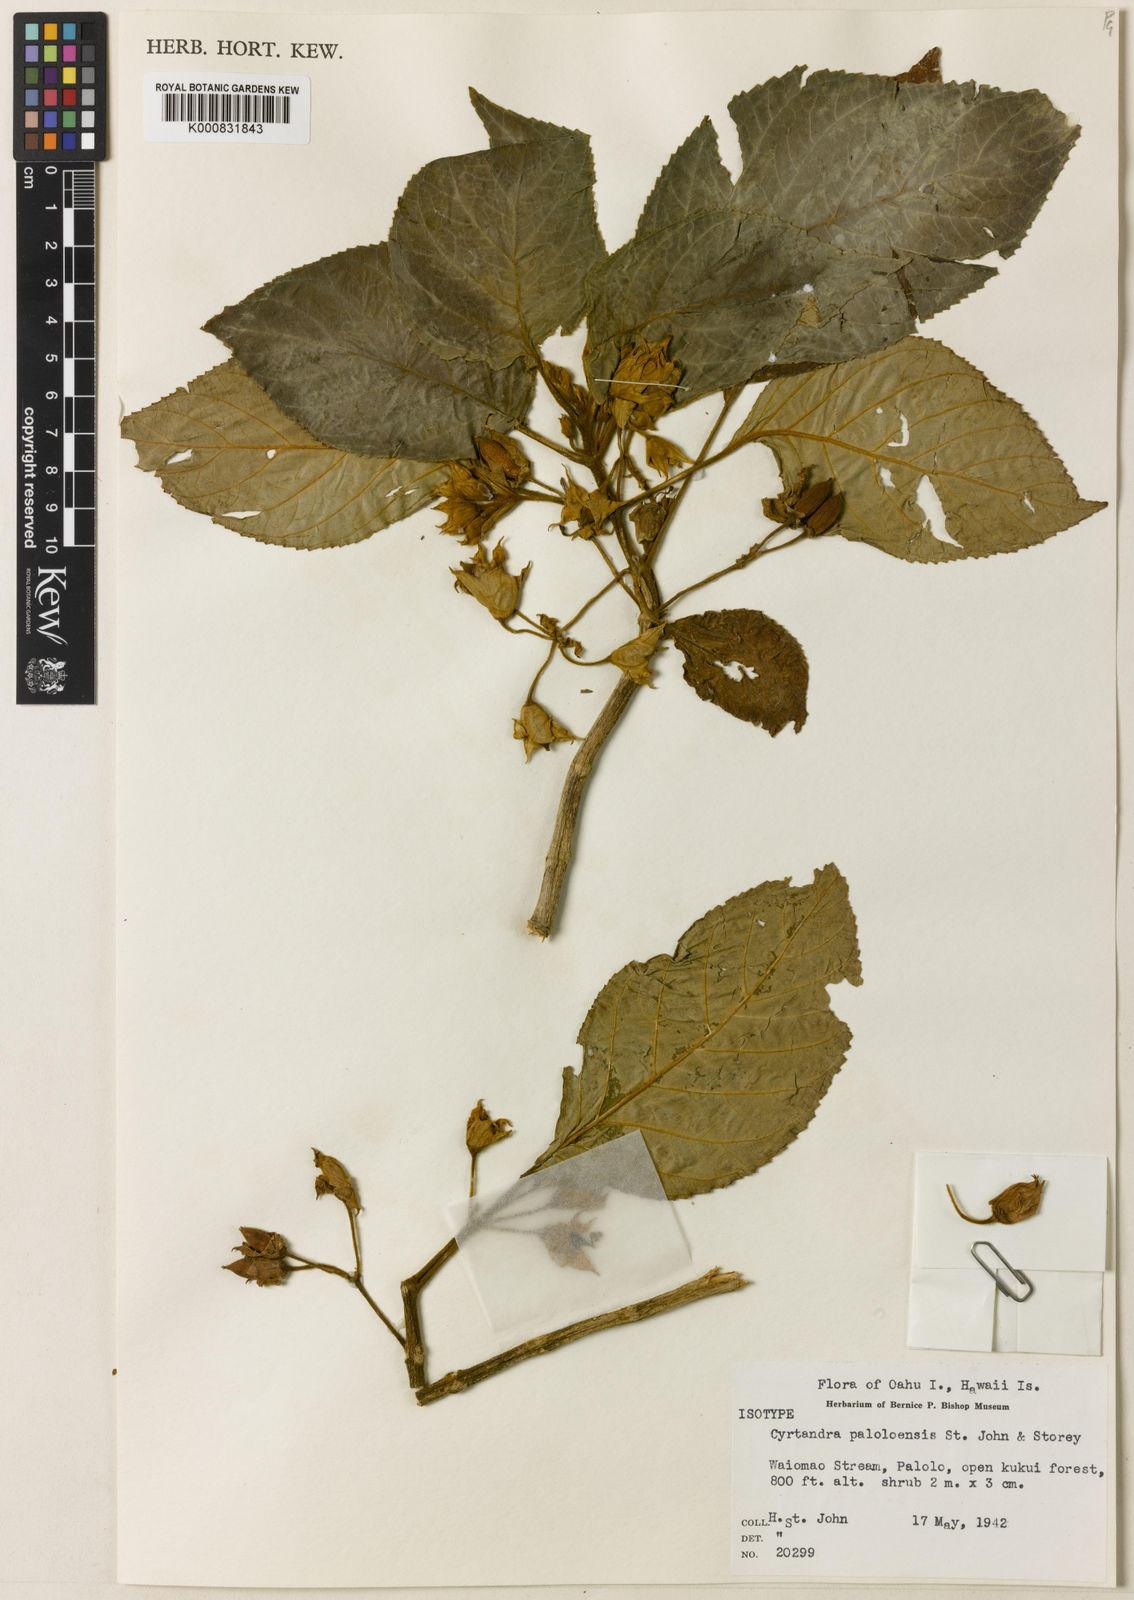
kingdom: Plantae
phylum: Tracheophyta
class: Magnoliopsida
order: Lamiales
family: Gesneriaceae
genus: Cyrtandra
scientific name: Cyrtandra ferruginosa
